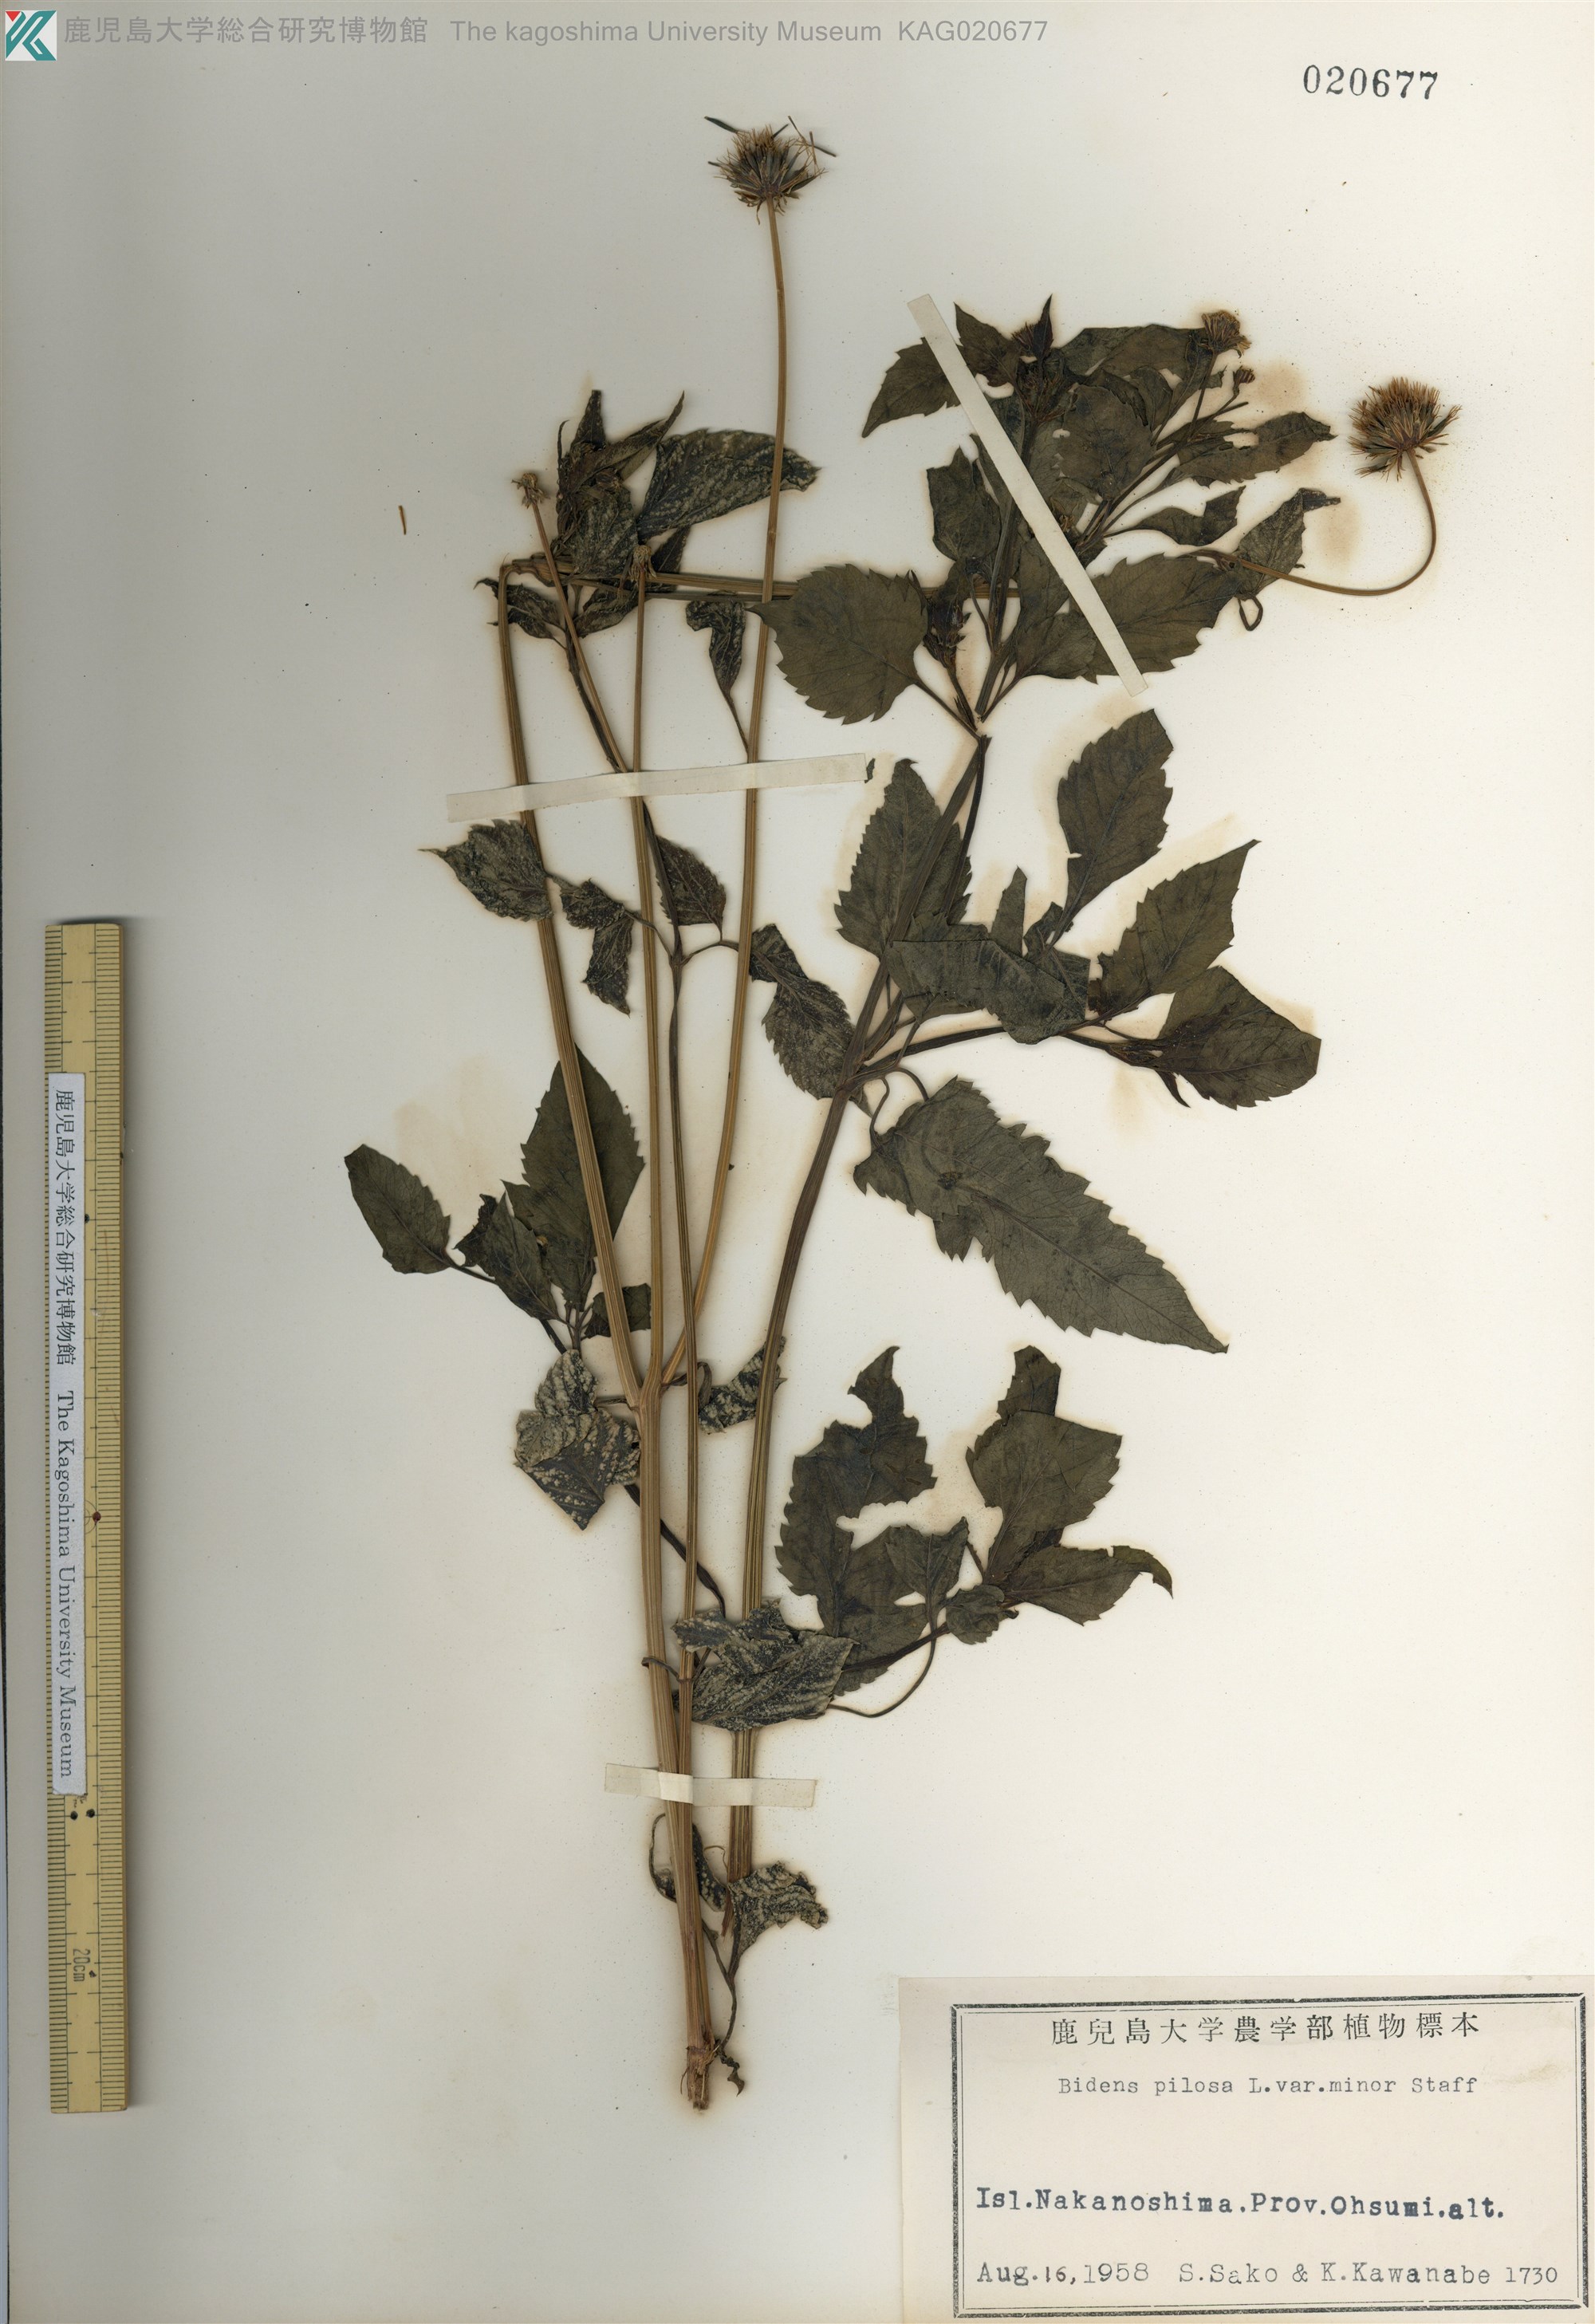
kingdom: Plantae
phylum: Tracheophyta
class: Magnoliopsida
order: Asterales
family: Asteraceae
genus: Bidens
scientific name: Bidens pilosa
